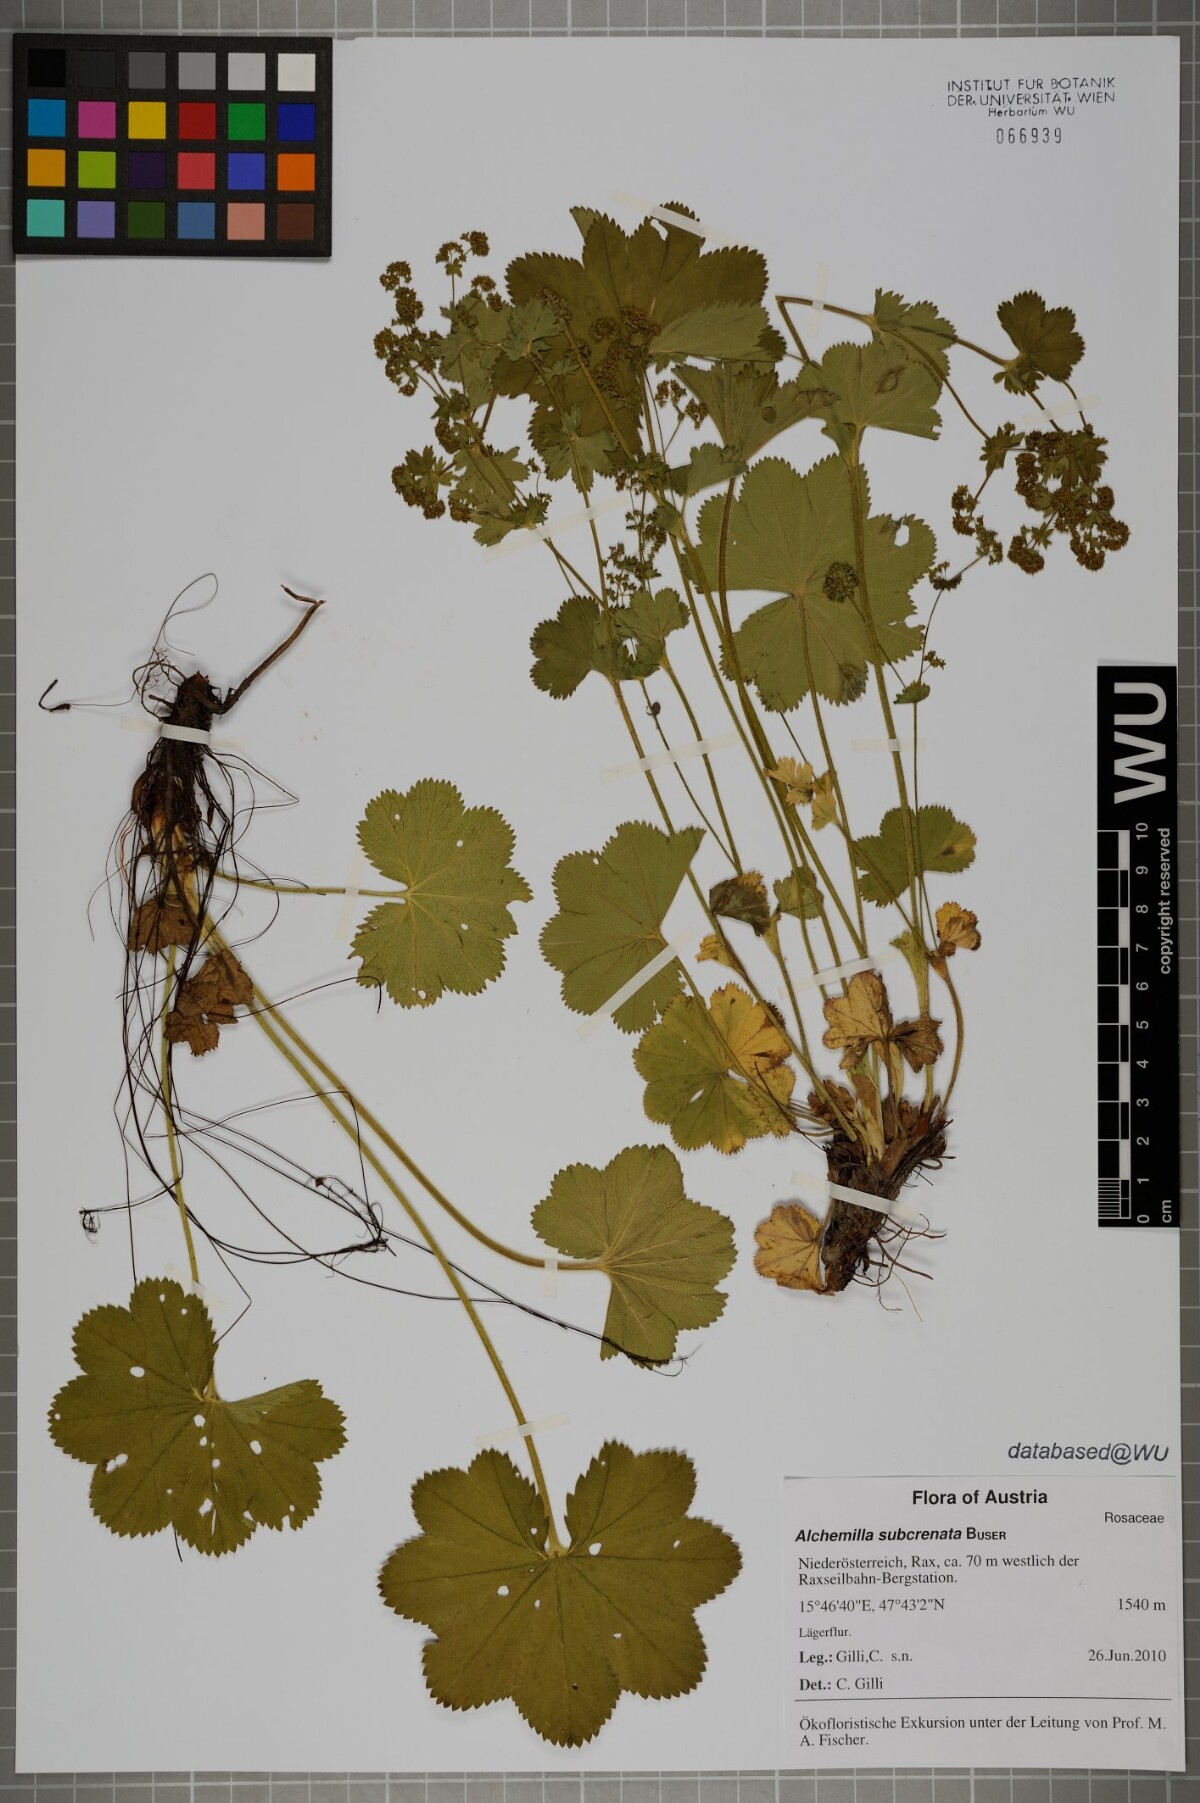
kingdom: Plantae
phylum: Tracheophyta
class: Magnoliopsida
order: Rosales
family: Rosaceae
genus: Alchemilla
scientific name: Alchemilla subcrenata
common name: Broadtooth lady's mantle
